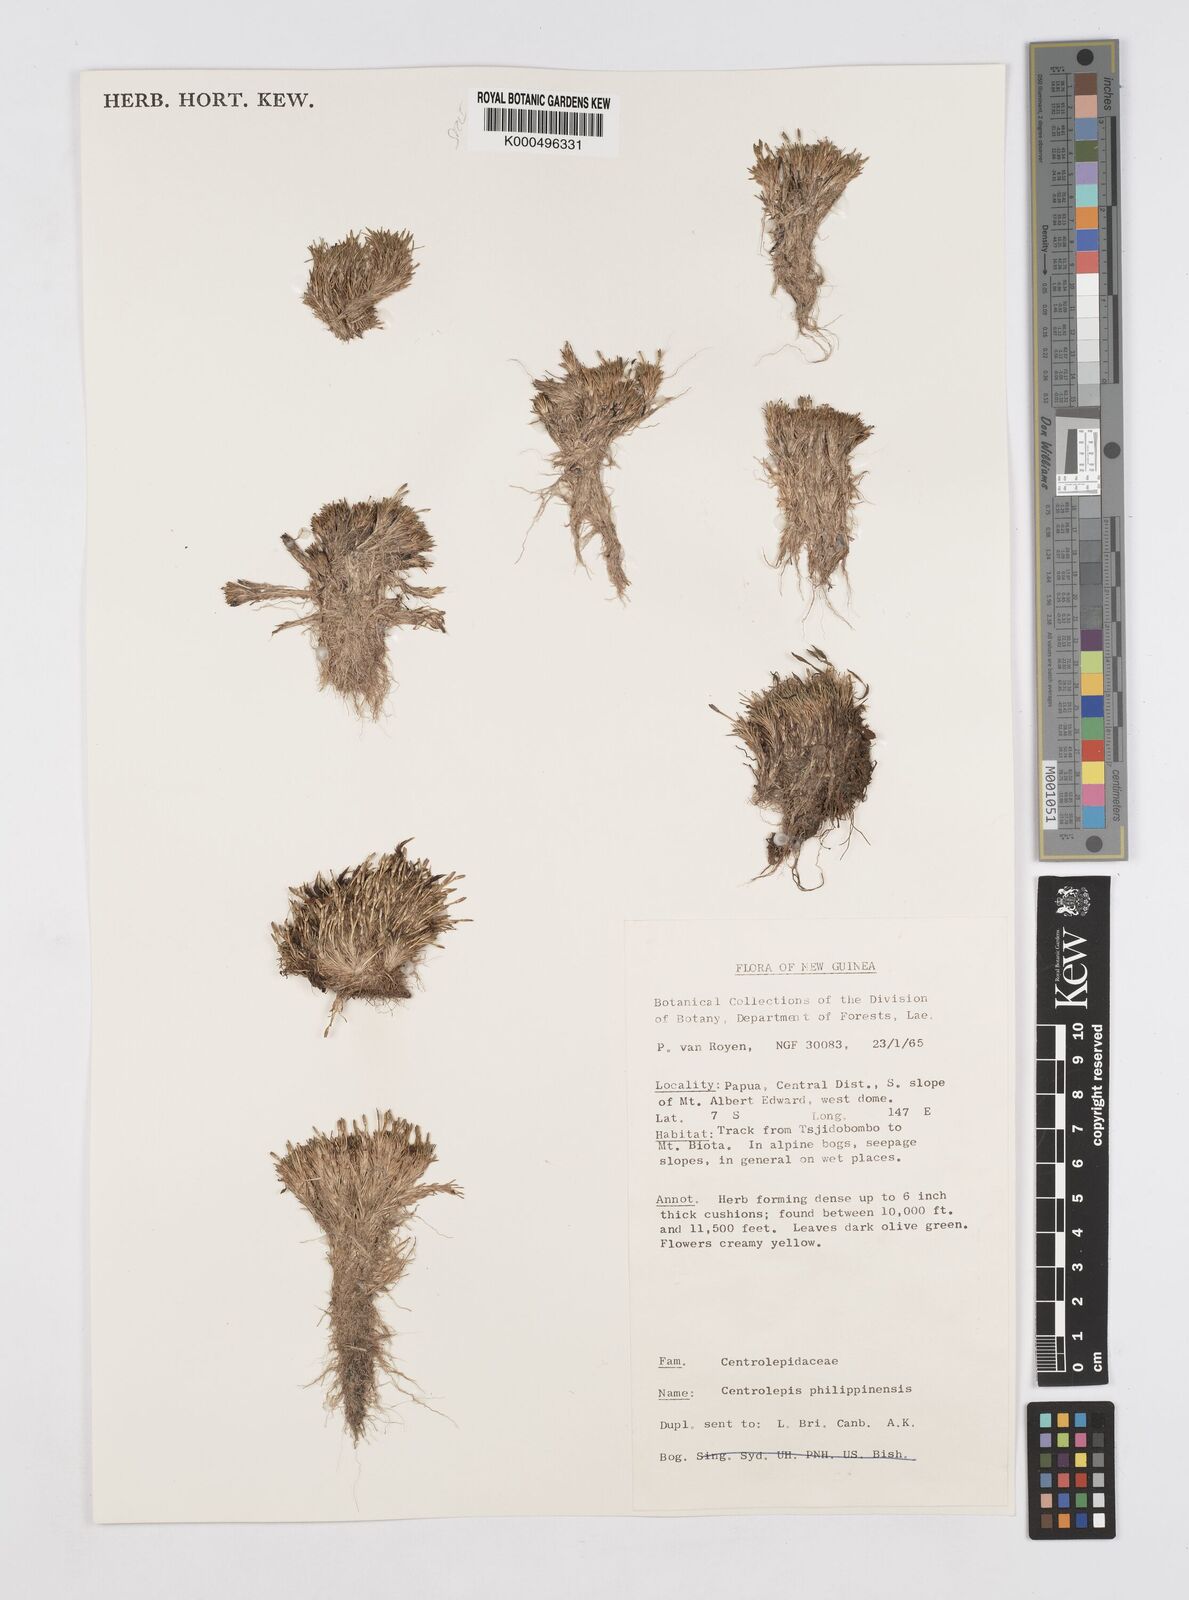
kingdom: Plantae
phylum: Tracheophyta
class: Liliopsida
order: Poales
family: Restionaceae
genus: Centrolepis
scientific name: Centrolepis philippinensis
